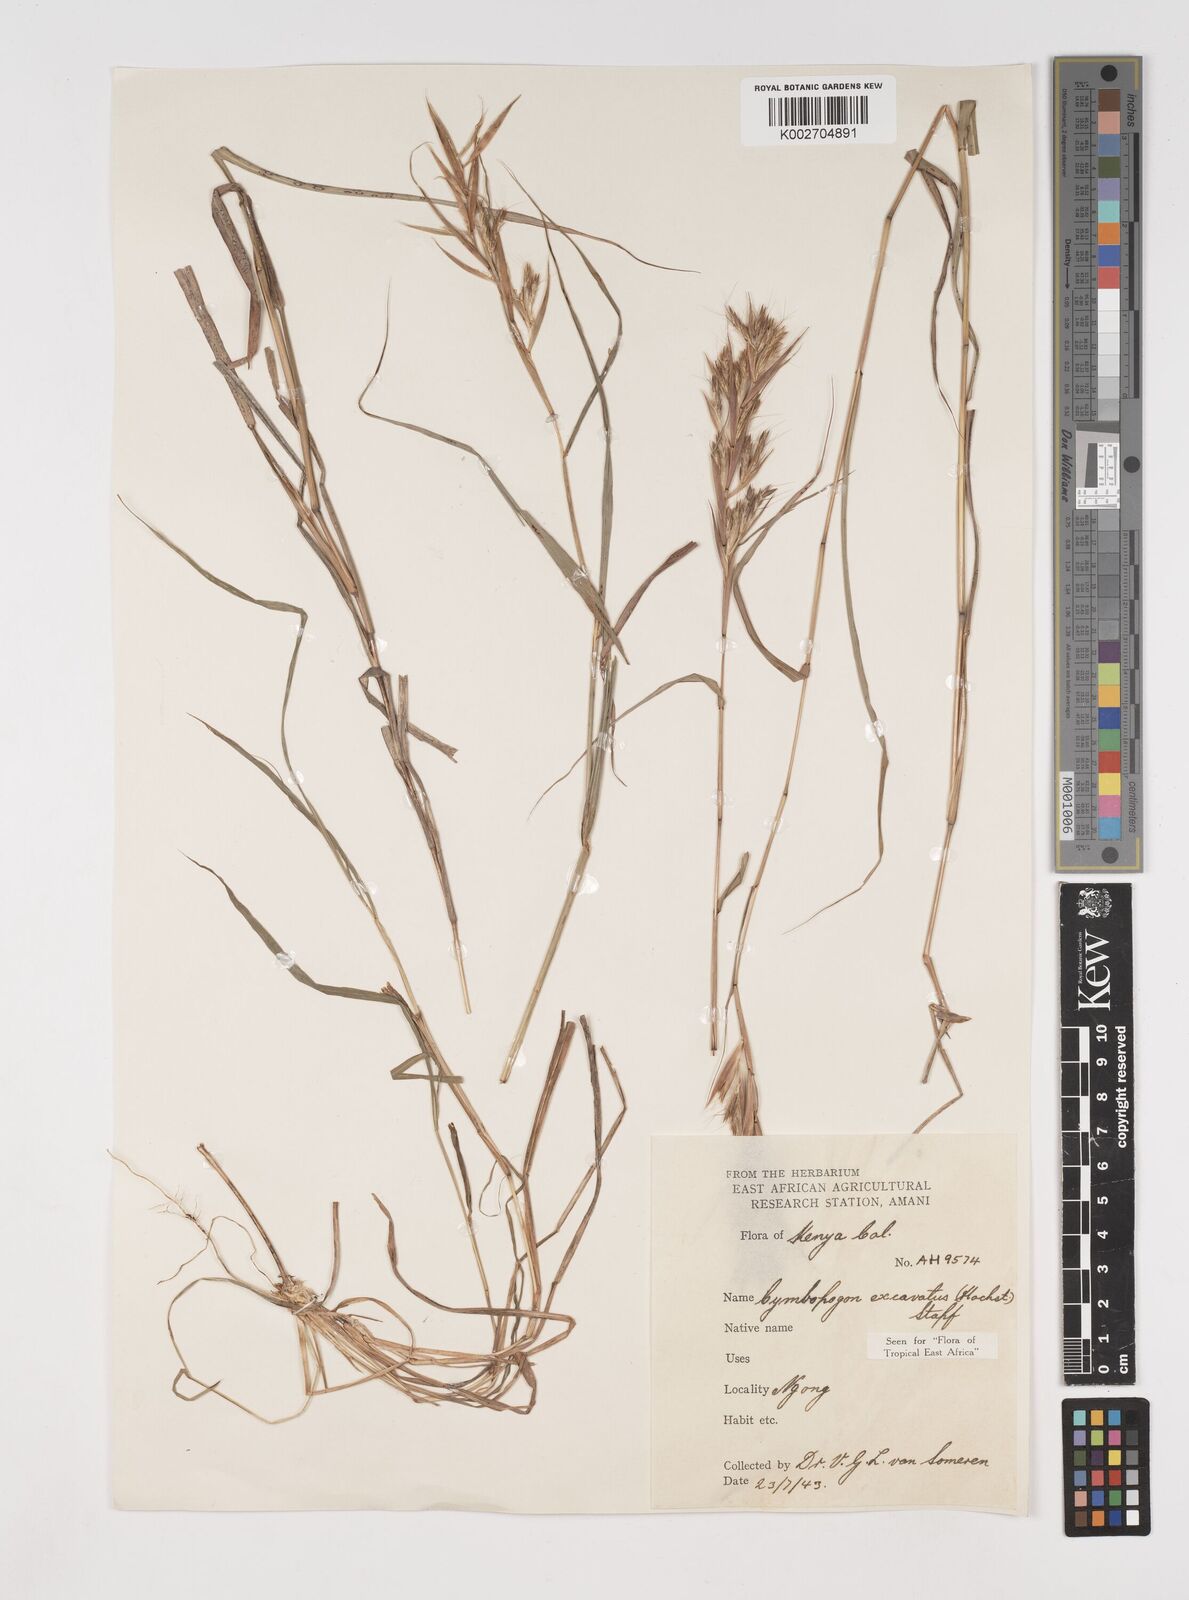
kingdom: Plantae
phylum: Tracheophyta
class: Liliopsida
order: Poales
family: Poaceae
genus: Cymbopogon
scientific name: Cymbopogon caesius
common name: Kachi grass
